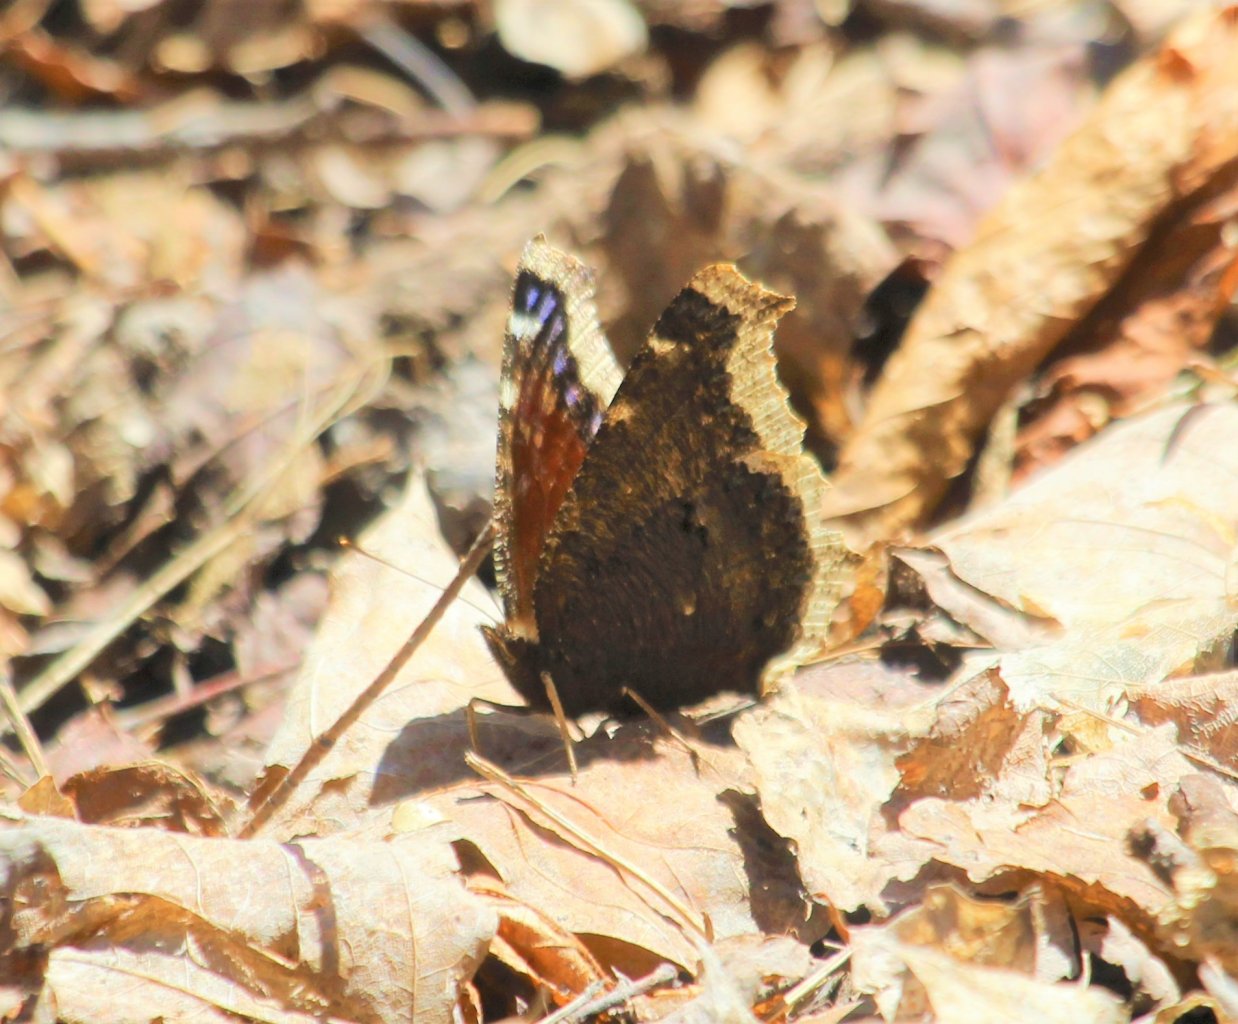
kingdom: Animalia
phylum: Arthropoda
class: Insecta
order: Lepidoptera
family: Nymphalidae
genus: Nymphalis
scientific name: Nymphalis antiopa
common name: Mourning Cloak
